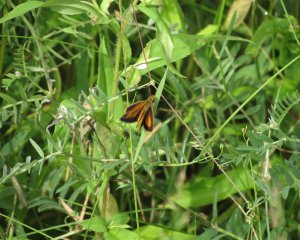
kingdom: Animalia
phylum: Arthropoda
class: Insecta
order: Lepidoptera
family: Hesperiidae
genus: Ancyloxypha
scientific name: Ancyloxypha numitor
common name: Least Skipper
